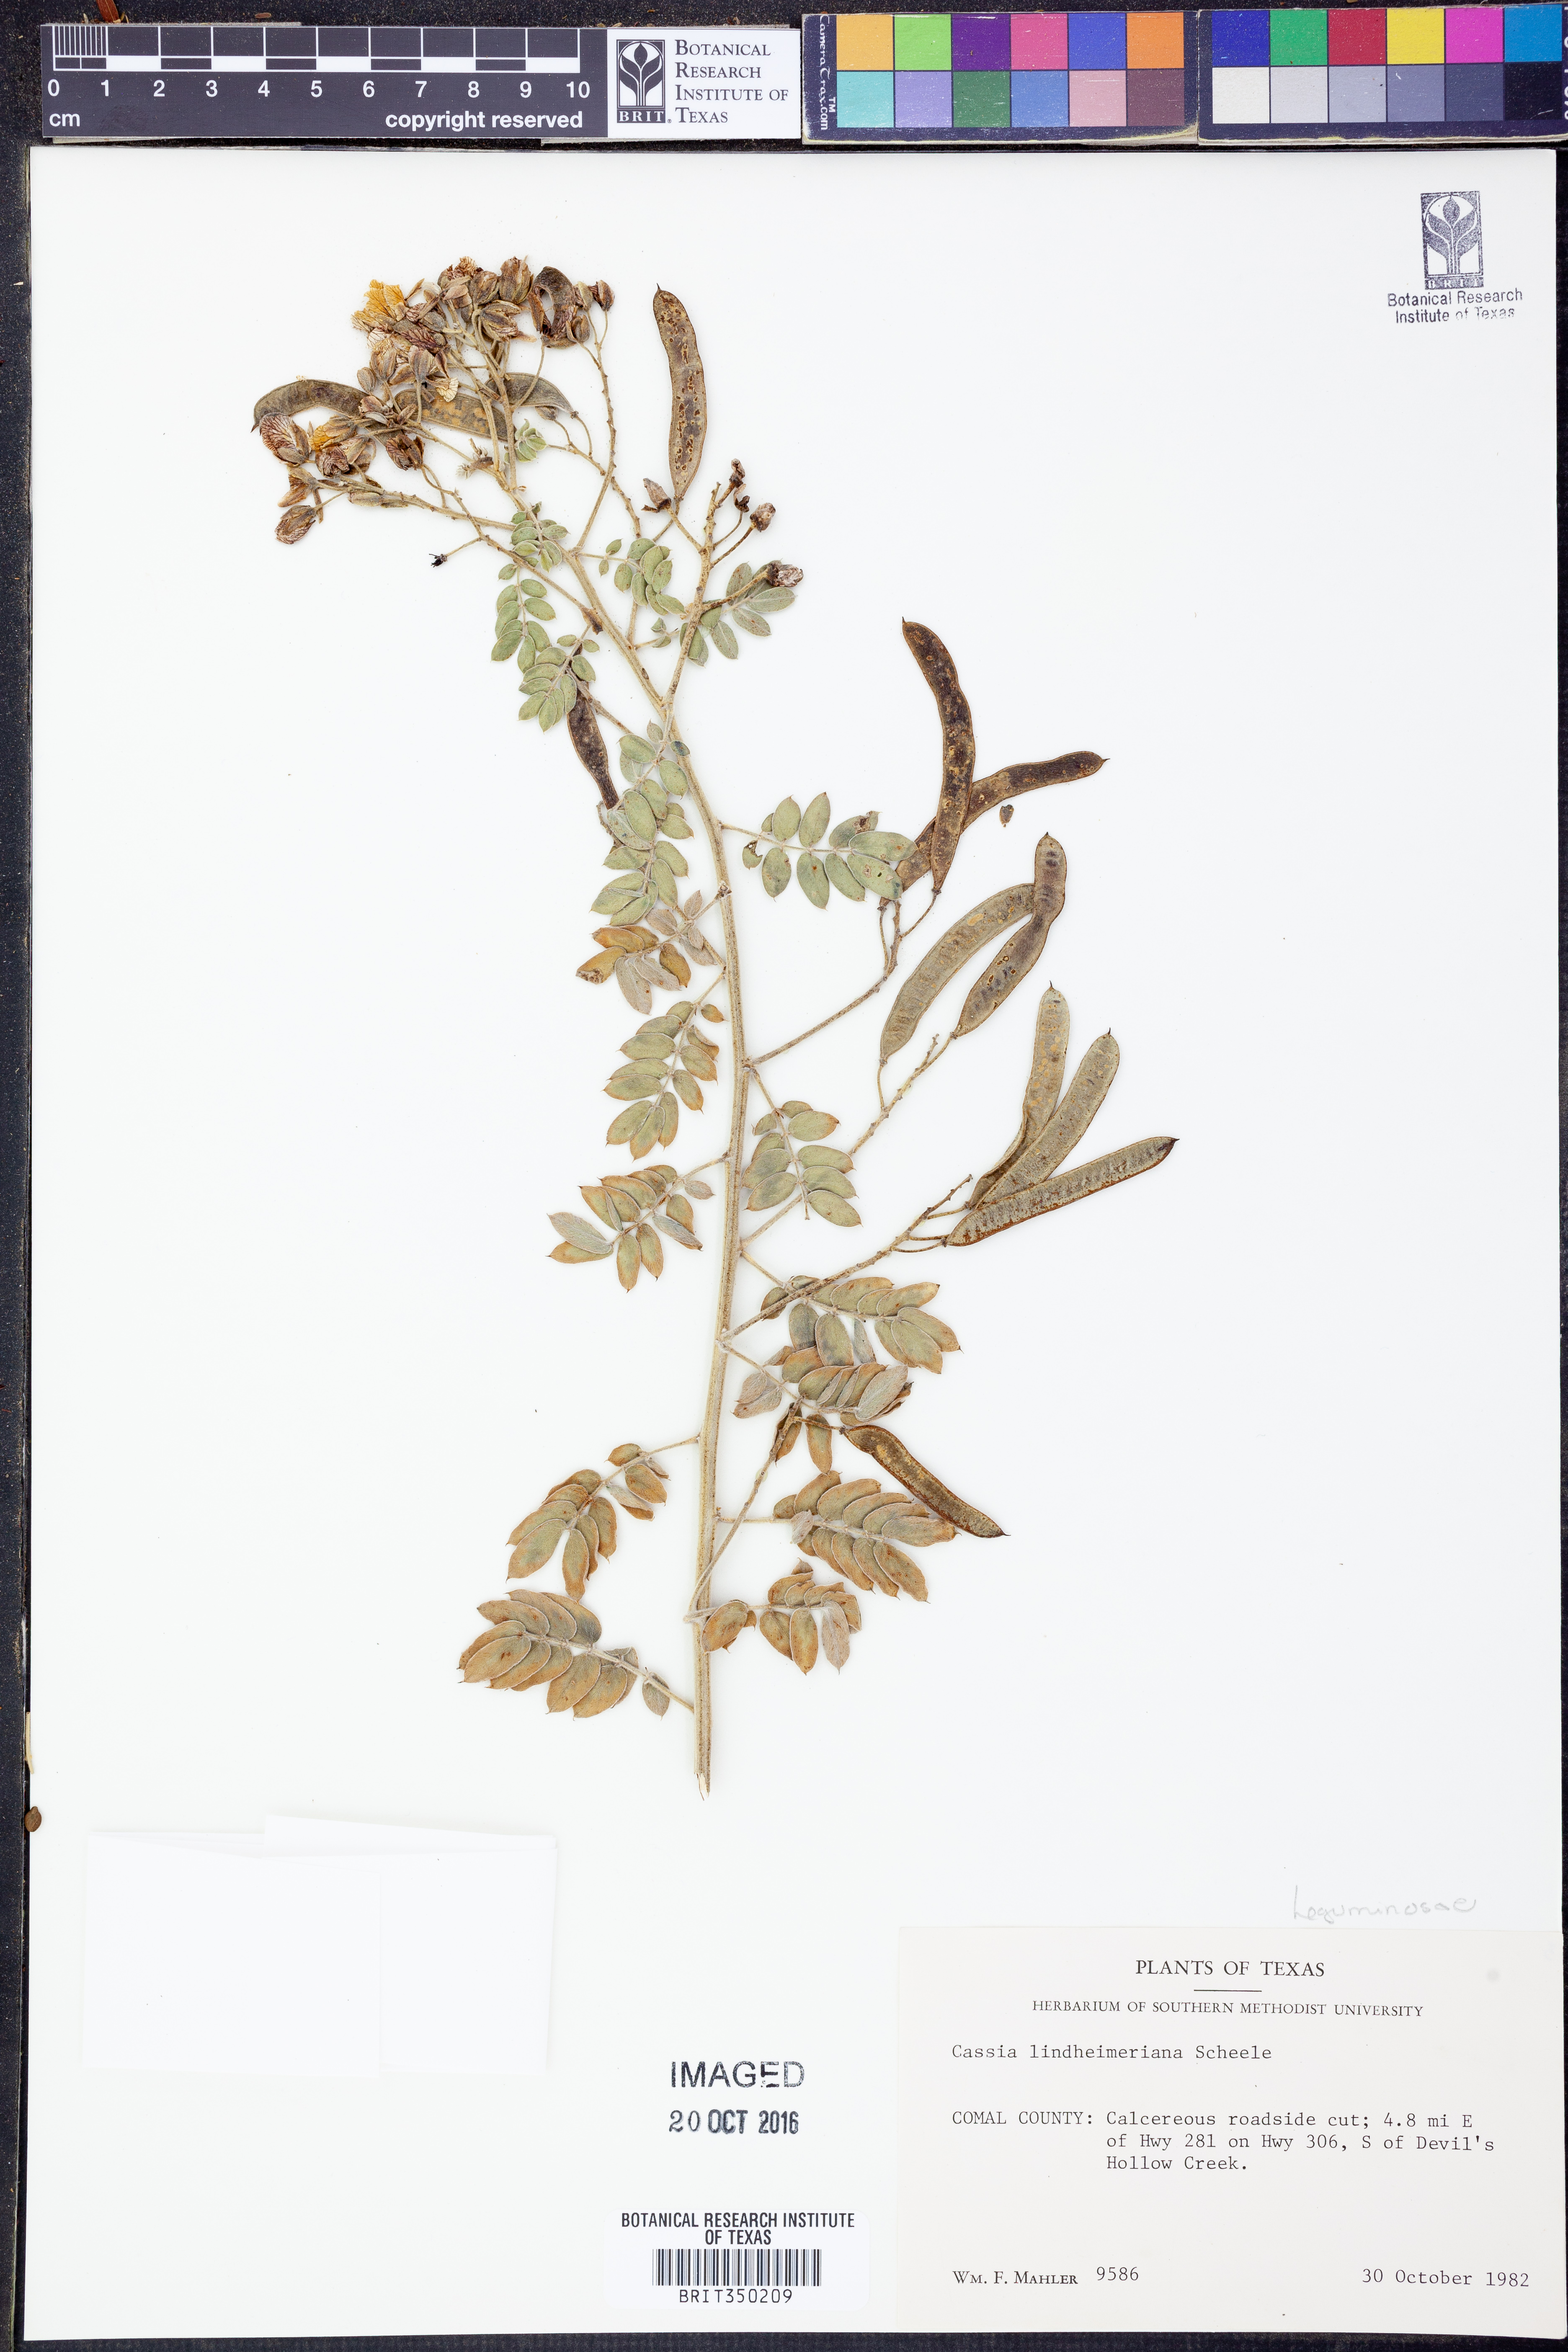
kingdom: Plantae
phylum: Tracheophyta
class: Magnoliopsida
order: Fabales
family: Fabaceae
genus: Senna
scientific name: Senna lindheimeriana
